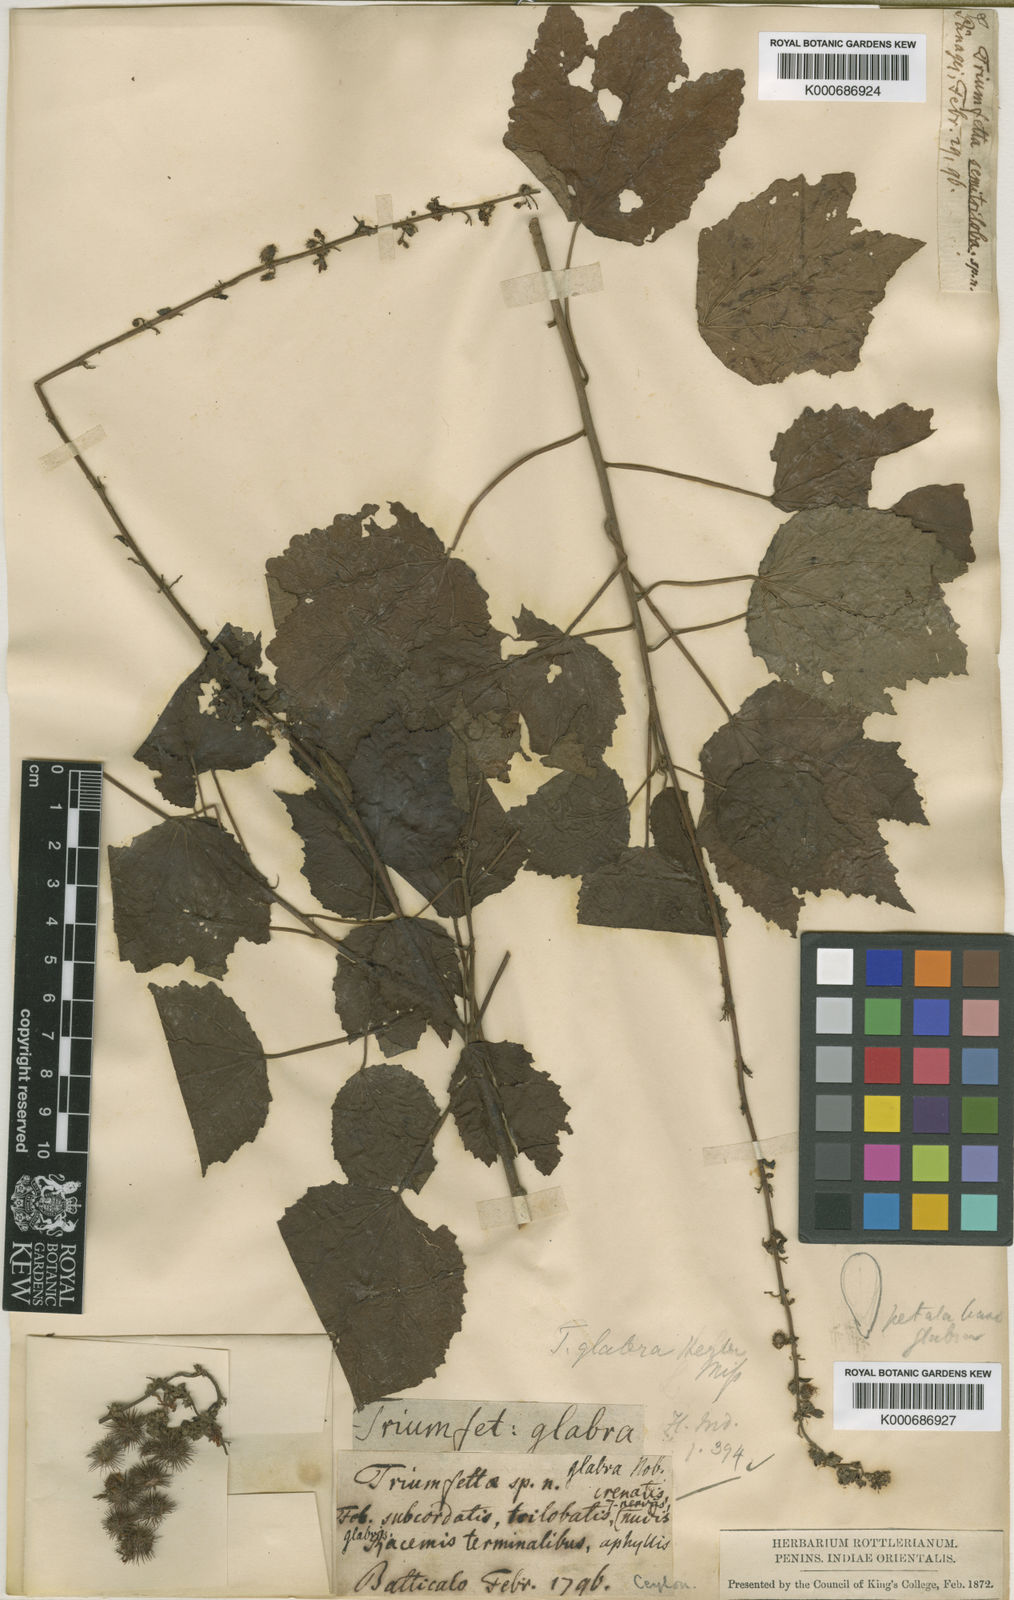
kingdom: Plantae
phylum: Tracheophyta
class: Magnoliopsida
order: Malvales
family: Malvaceae
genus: Triumfetta
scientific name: Triumfetta glabra
